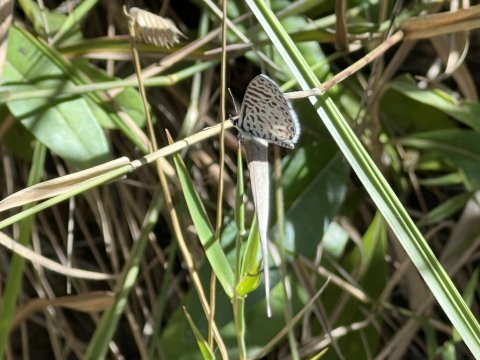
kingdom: Animalia
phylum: Arthropoda
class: Insecta
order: Lepidoptera
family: Lycaenidae
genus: Leptotes
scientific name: Leptotes cassius
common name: Cassius Blue
